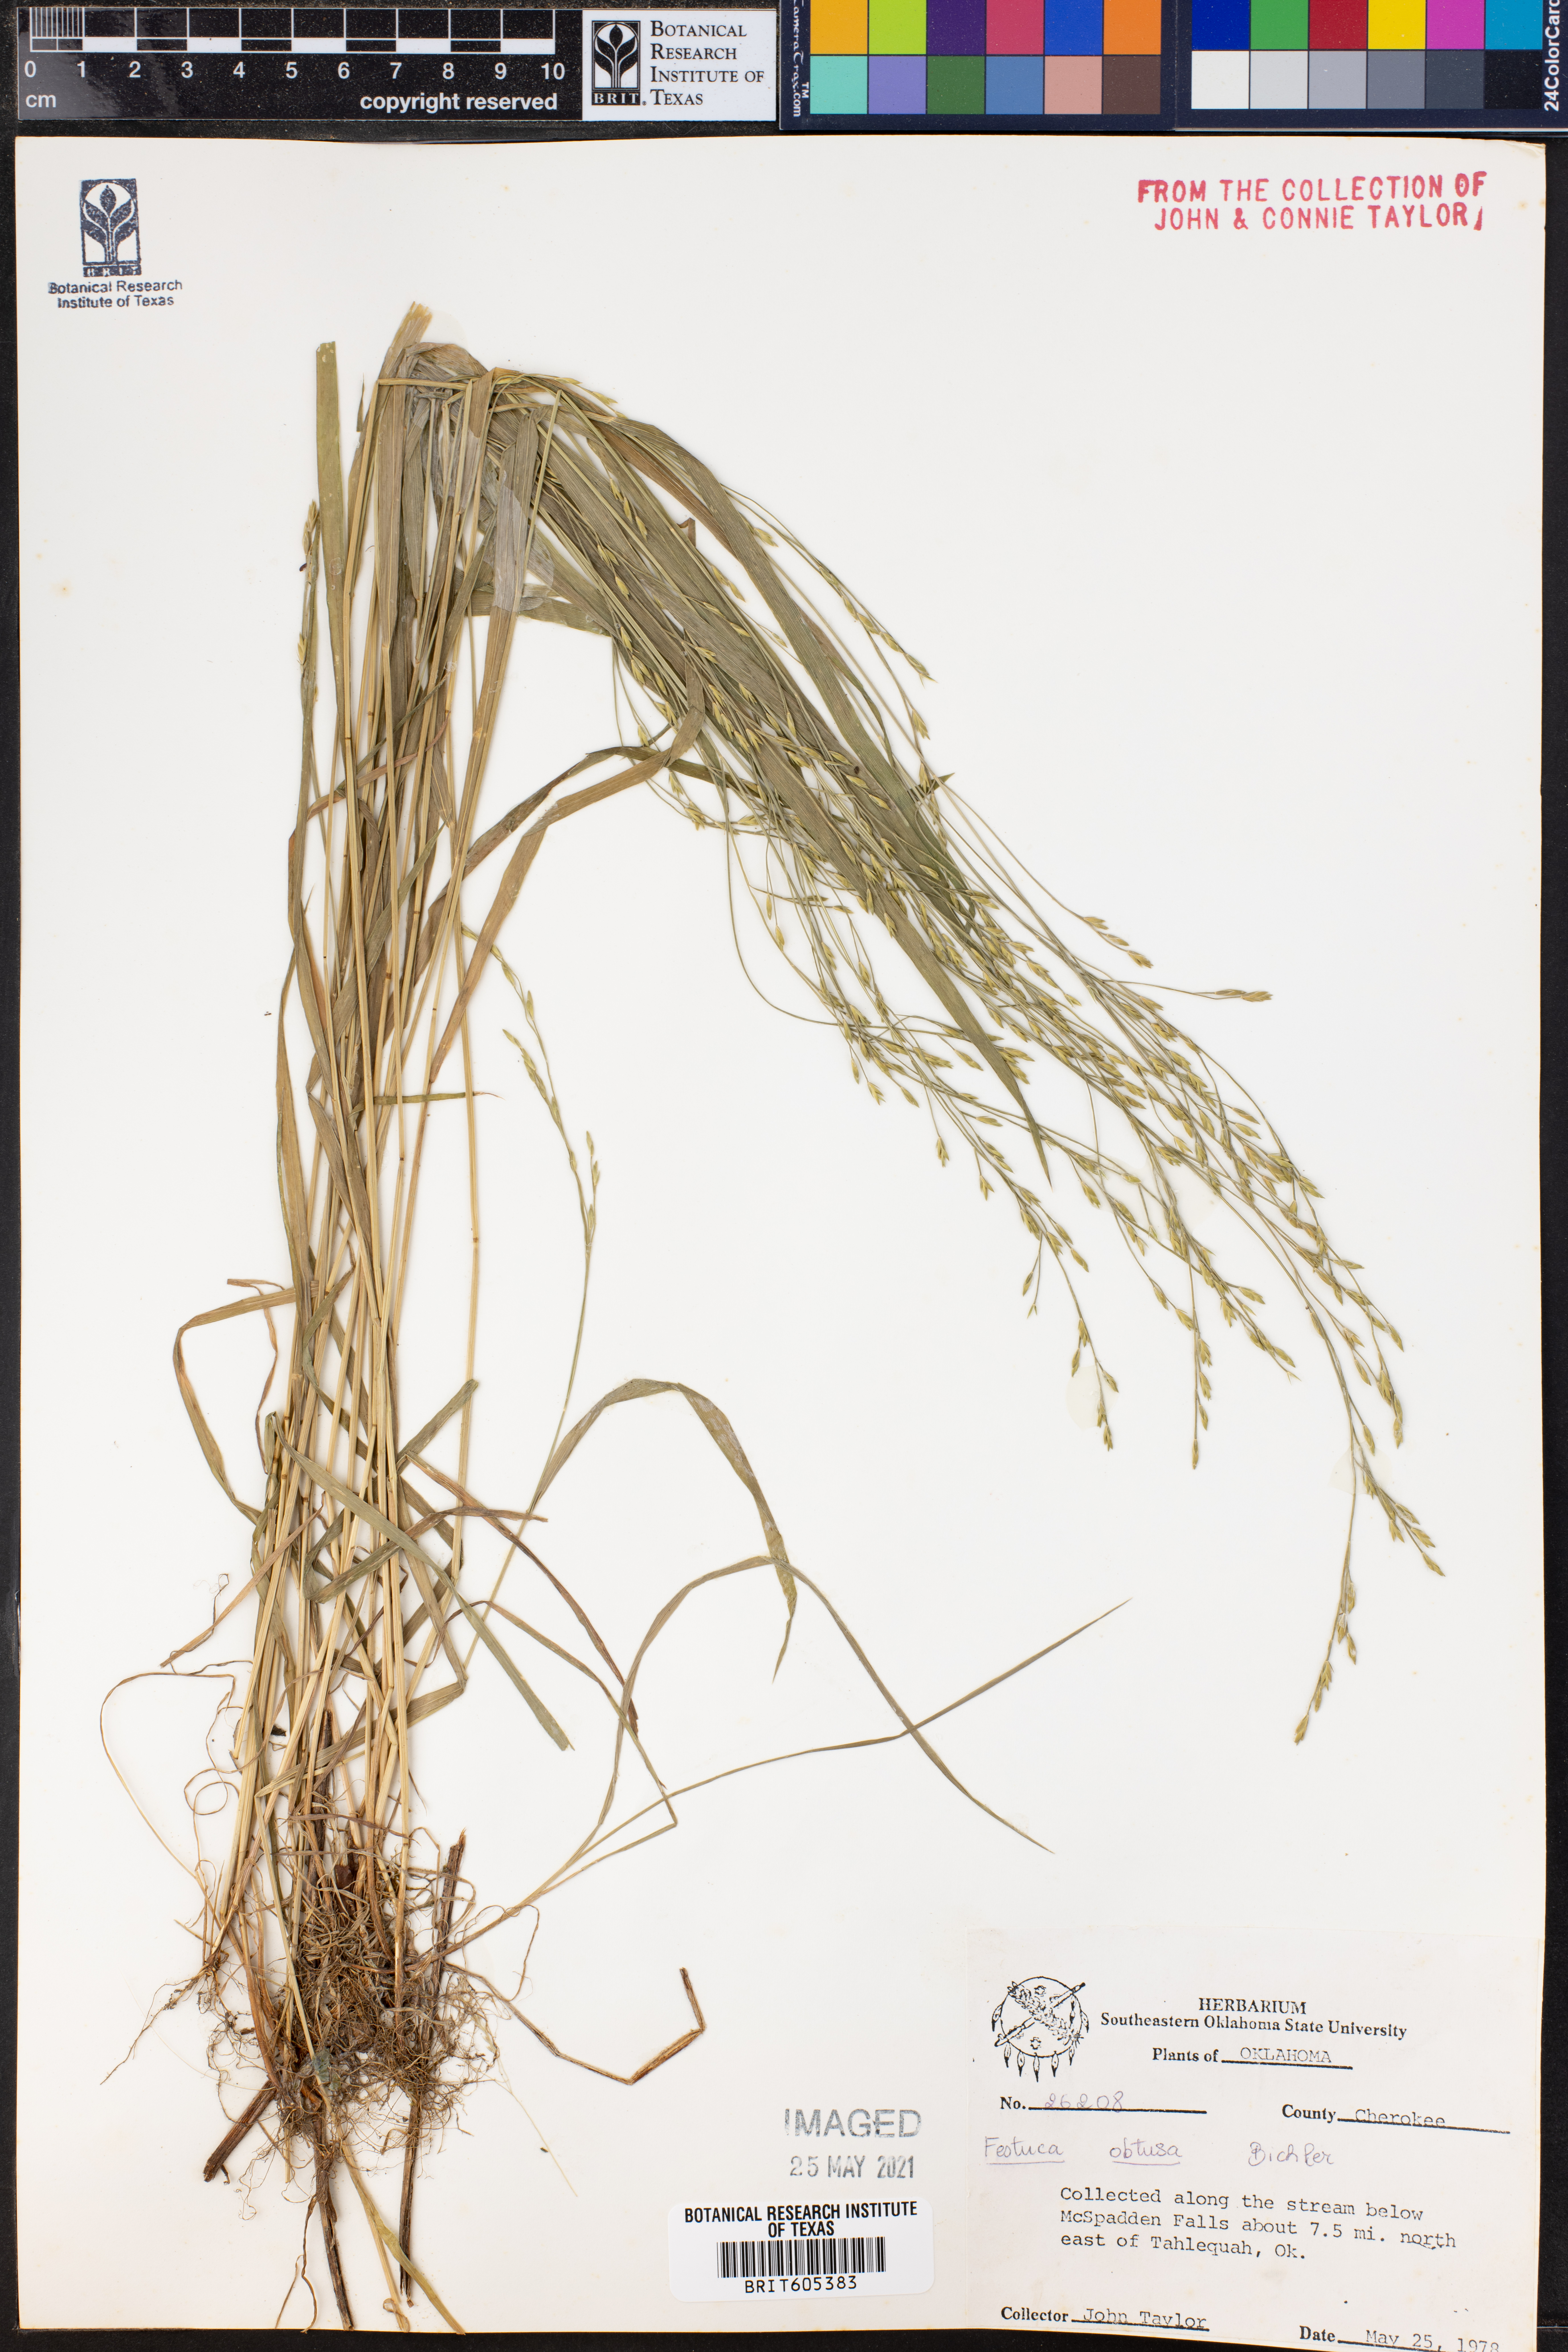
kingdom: Plantae
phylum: Tracheophyta
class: Liliopsida
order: Poales
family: Poaceae
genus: Festuca
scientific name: Festuca subverticillata
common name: Nodding fescue
